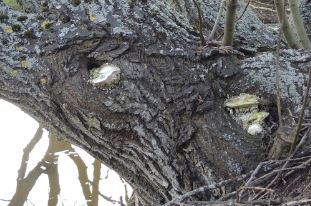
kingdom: Fungi
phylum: Basidiomycota
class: Agaricomycetes
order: Polyporales
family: Polyporaceae
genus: Trametes
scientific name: Trametes gibbosa
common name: puklet læderporesvamp
